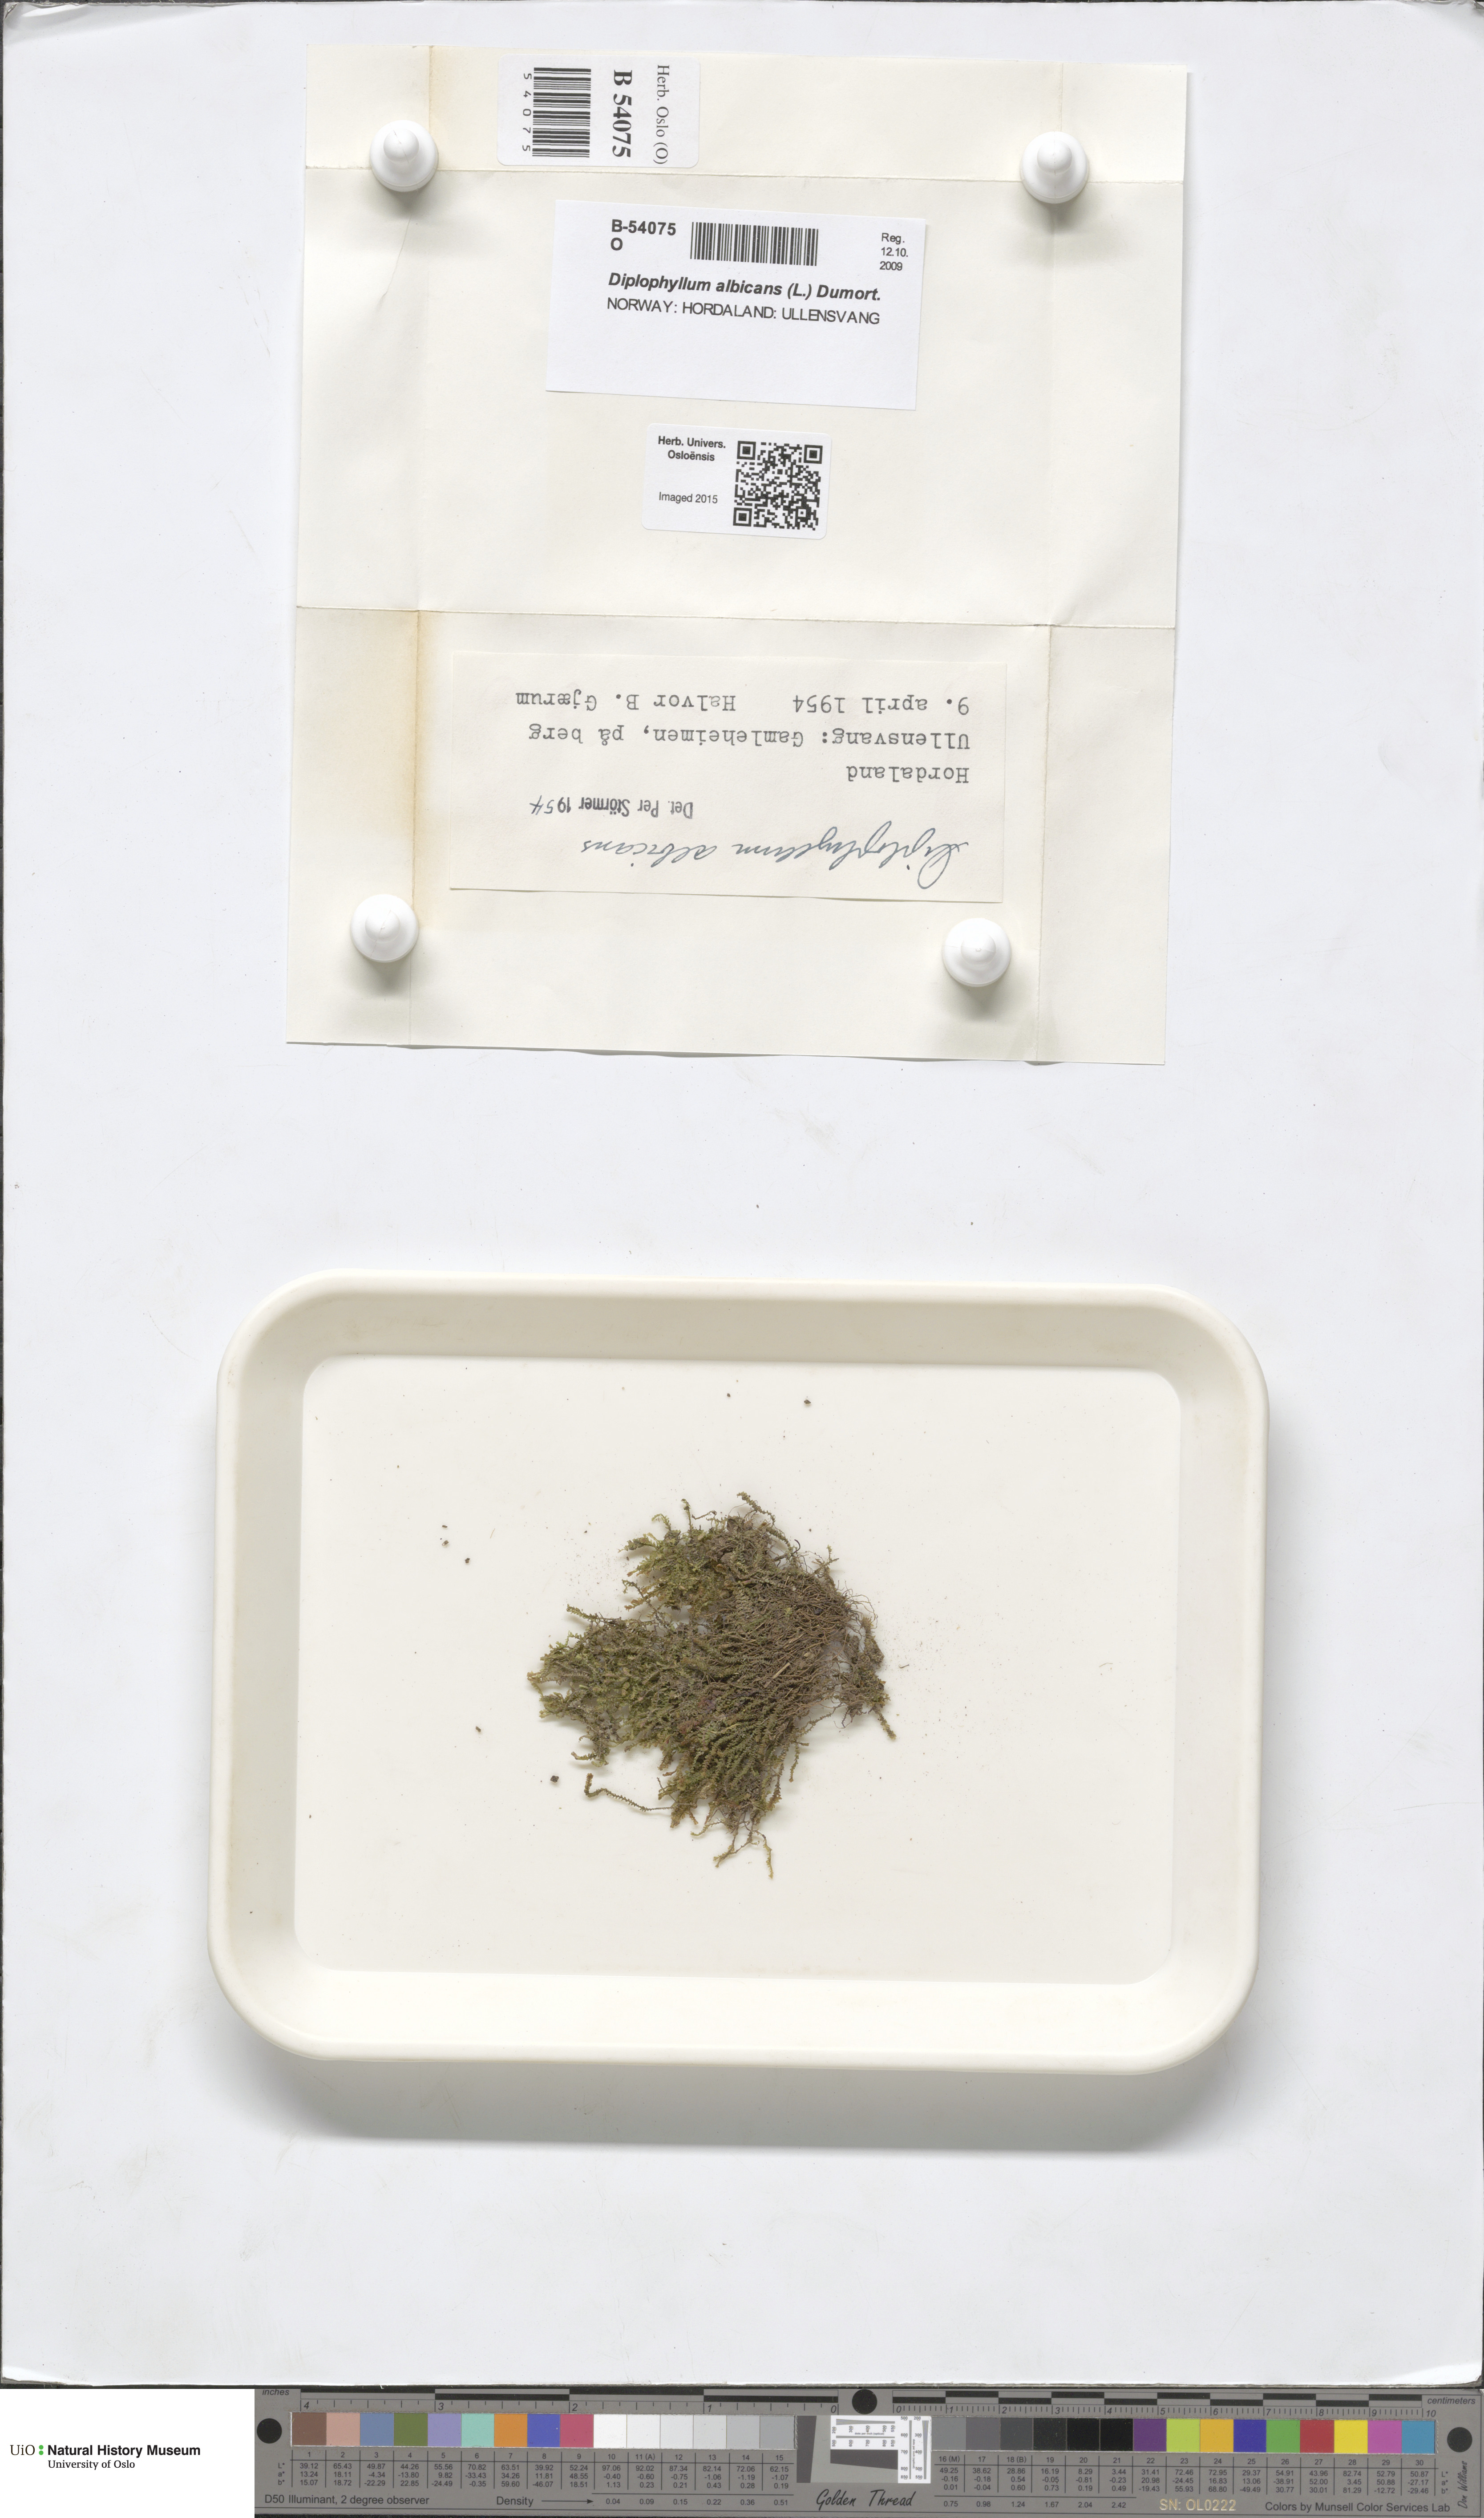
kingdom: Plantae
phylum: Marchantiophyta
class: Jungermanniopsida
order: Jungermanniales
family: Scapaniaceae
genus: Diplophyllum
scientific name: Diplophyllum albicans
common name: White earwort
